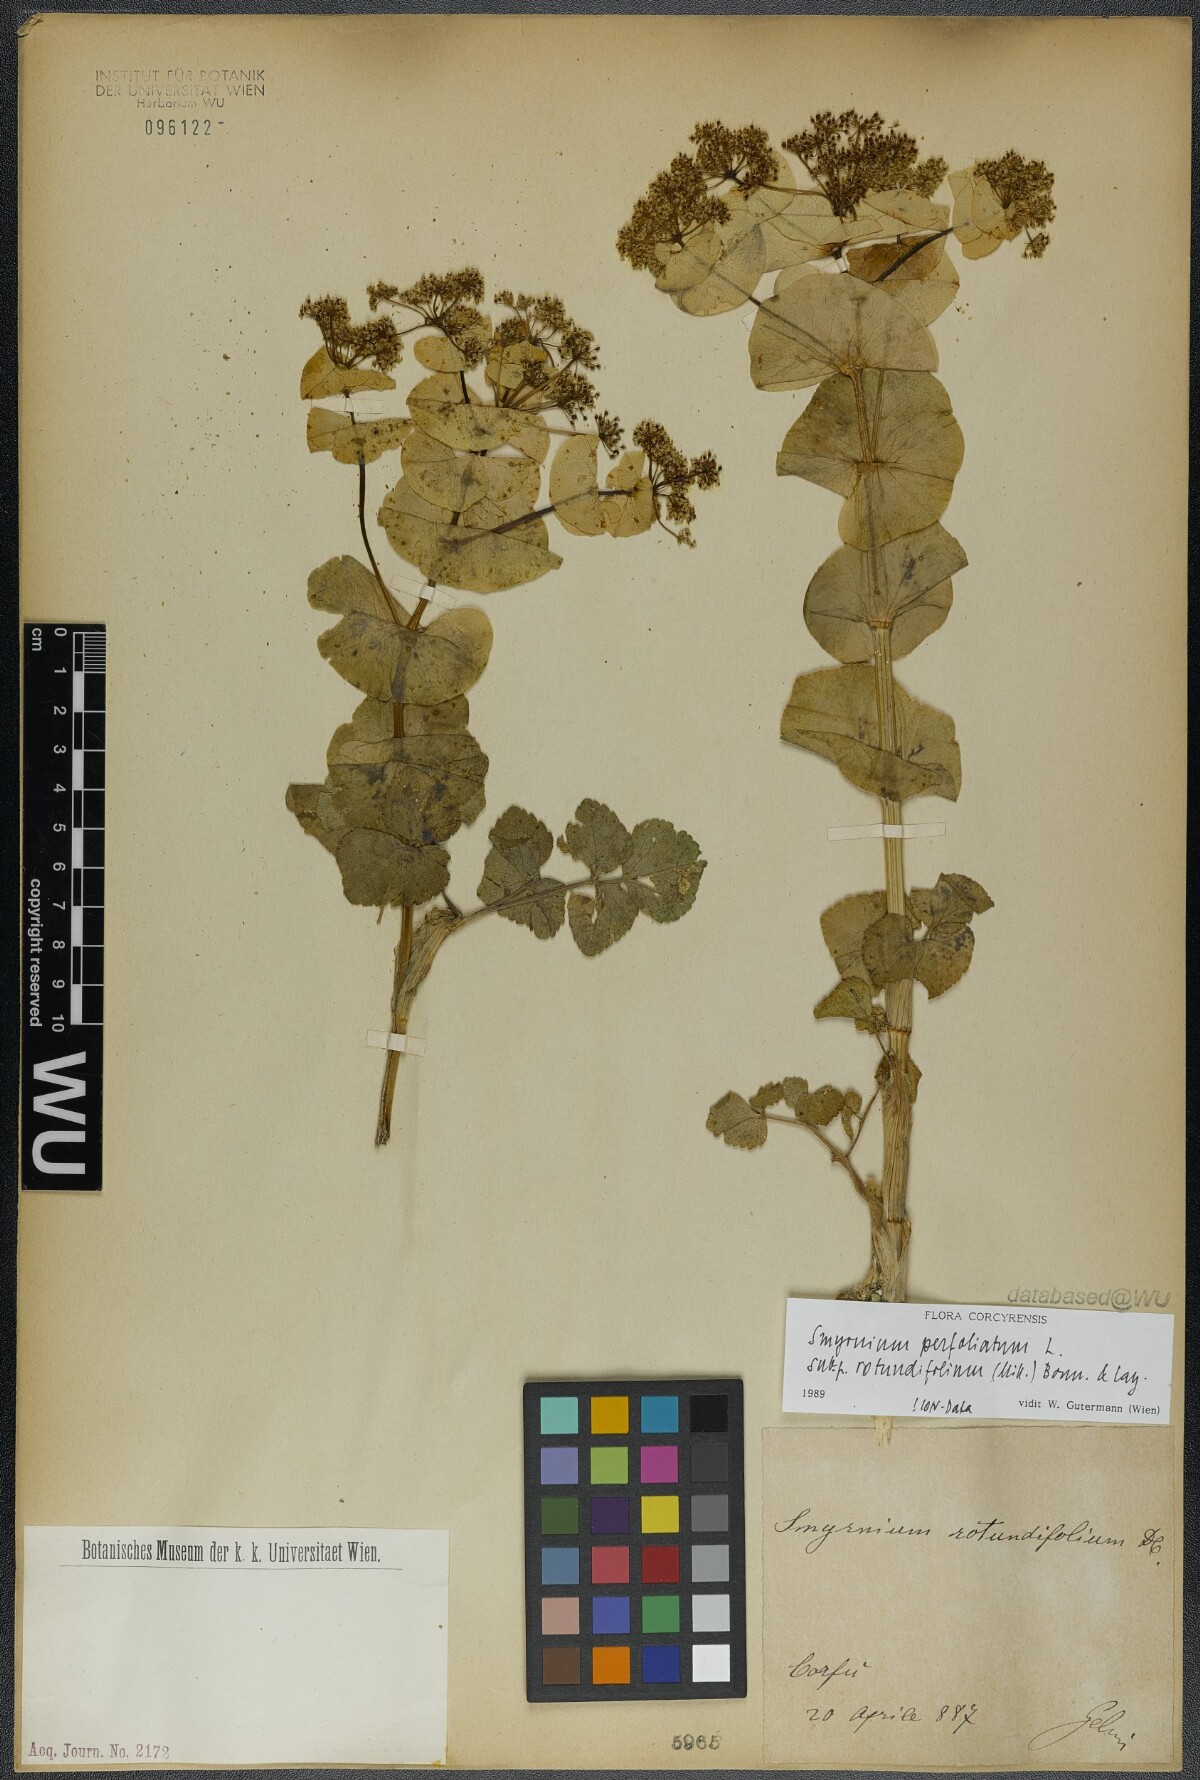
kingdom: Plantae
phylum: Tracheophyta
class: Magnoliopsida
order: Apiales
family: Apiaceae
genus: Smyrnium
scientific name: Smyrnium perfoliatum
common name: Perfoliate alexanders
